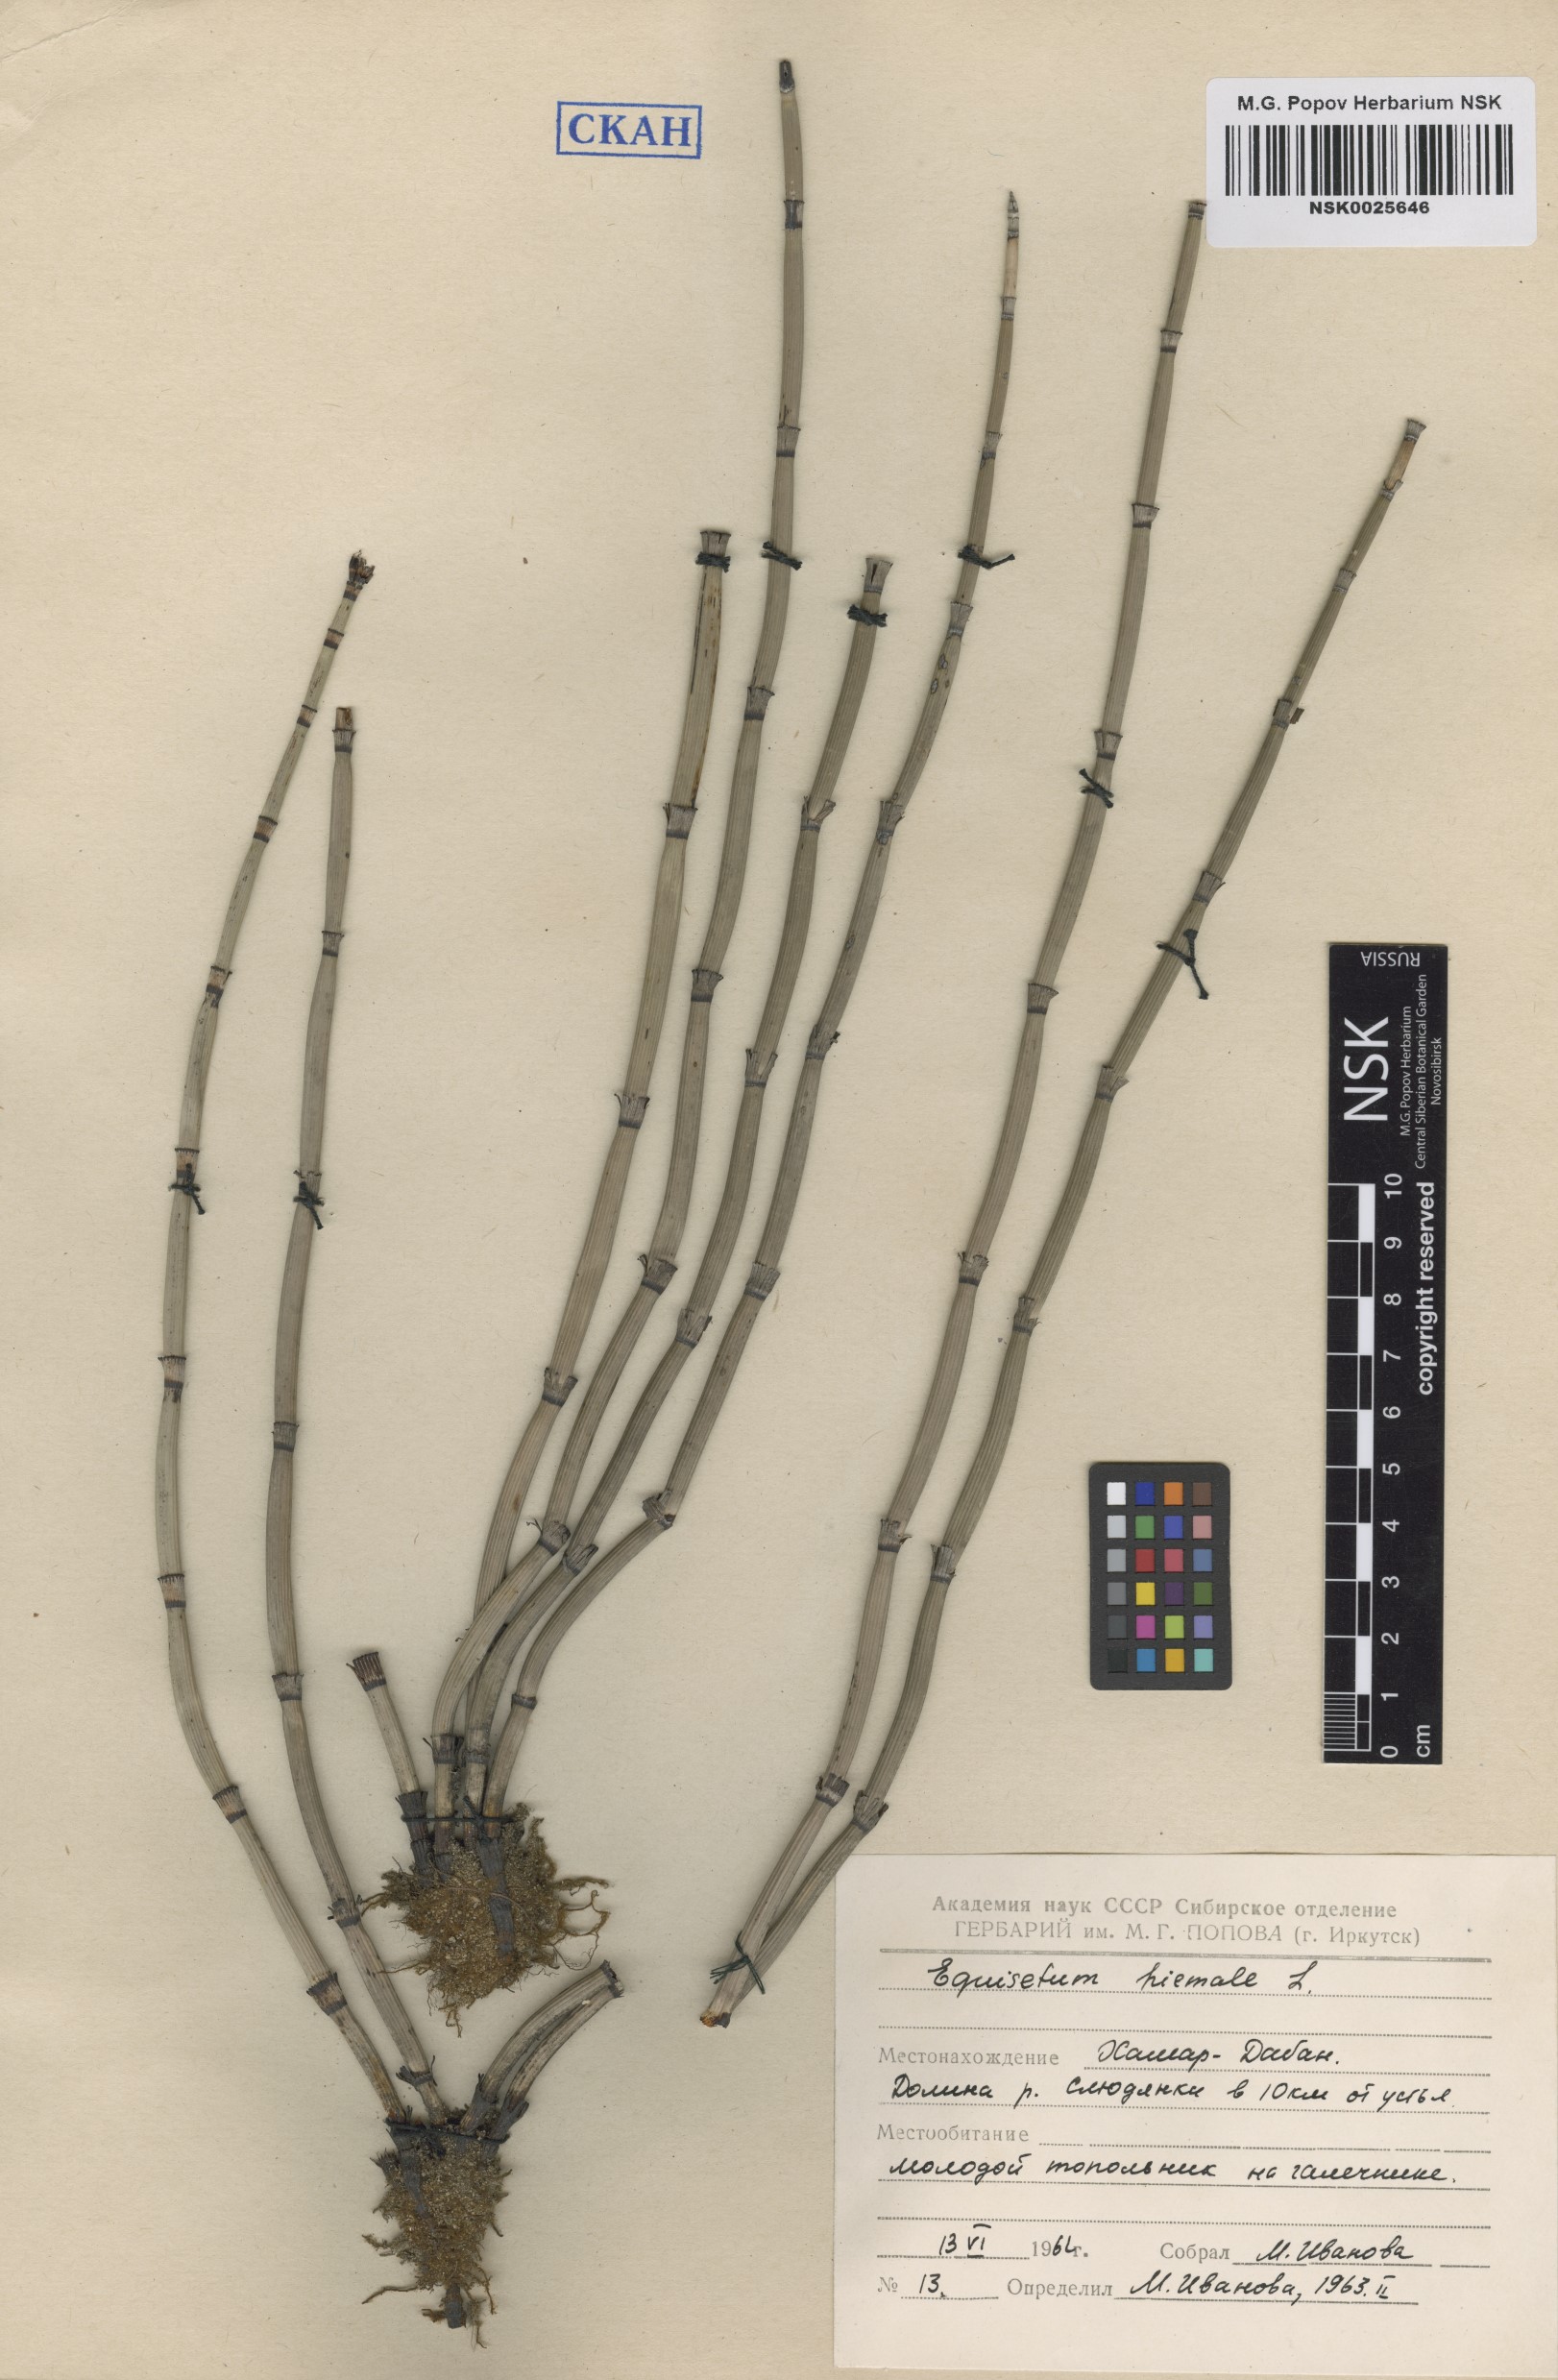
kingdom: Plantae
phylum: Tracheophyta
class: Polypodiopsida
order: Equisetales
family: Equisetaceae
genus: Equisetum
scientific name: Equisetum hyemale
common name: Rough horsetail
